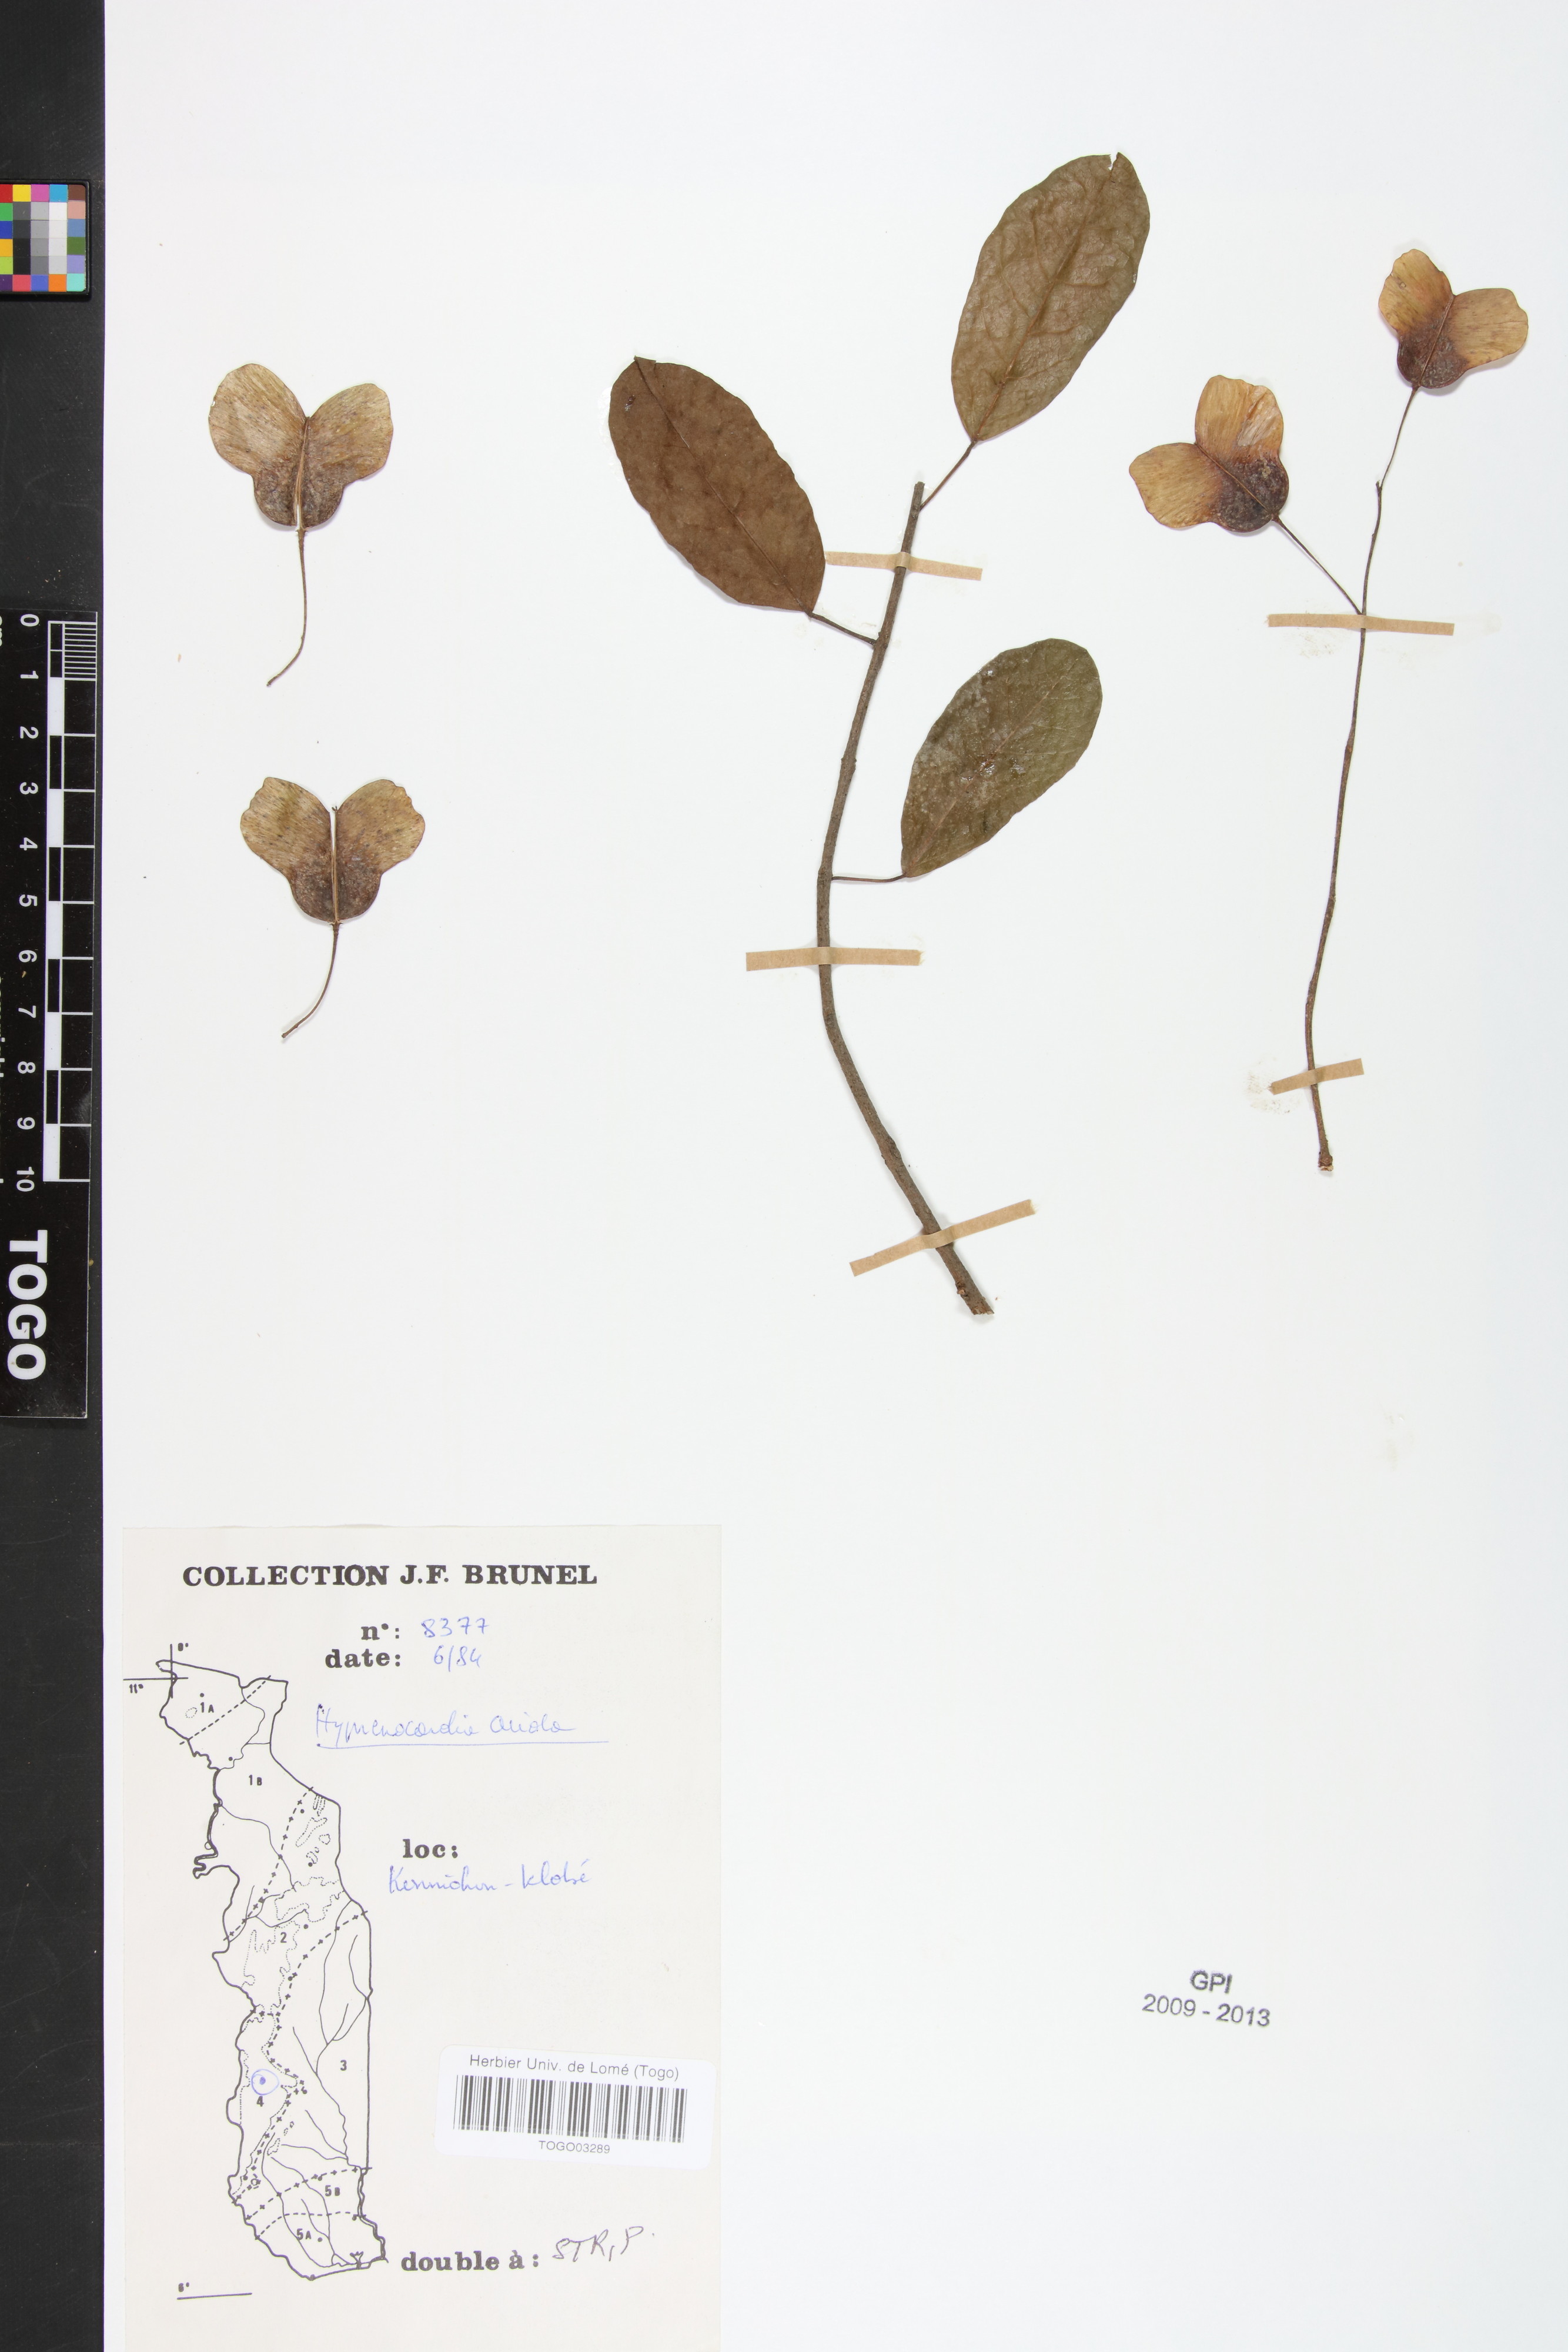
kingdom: Plantae
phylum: Tracheophyta
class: Magnoliopsida
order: Malpighiales
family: Phyllanthaceae
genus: Hymenocardia
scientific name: Hymenocardia acida
